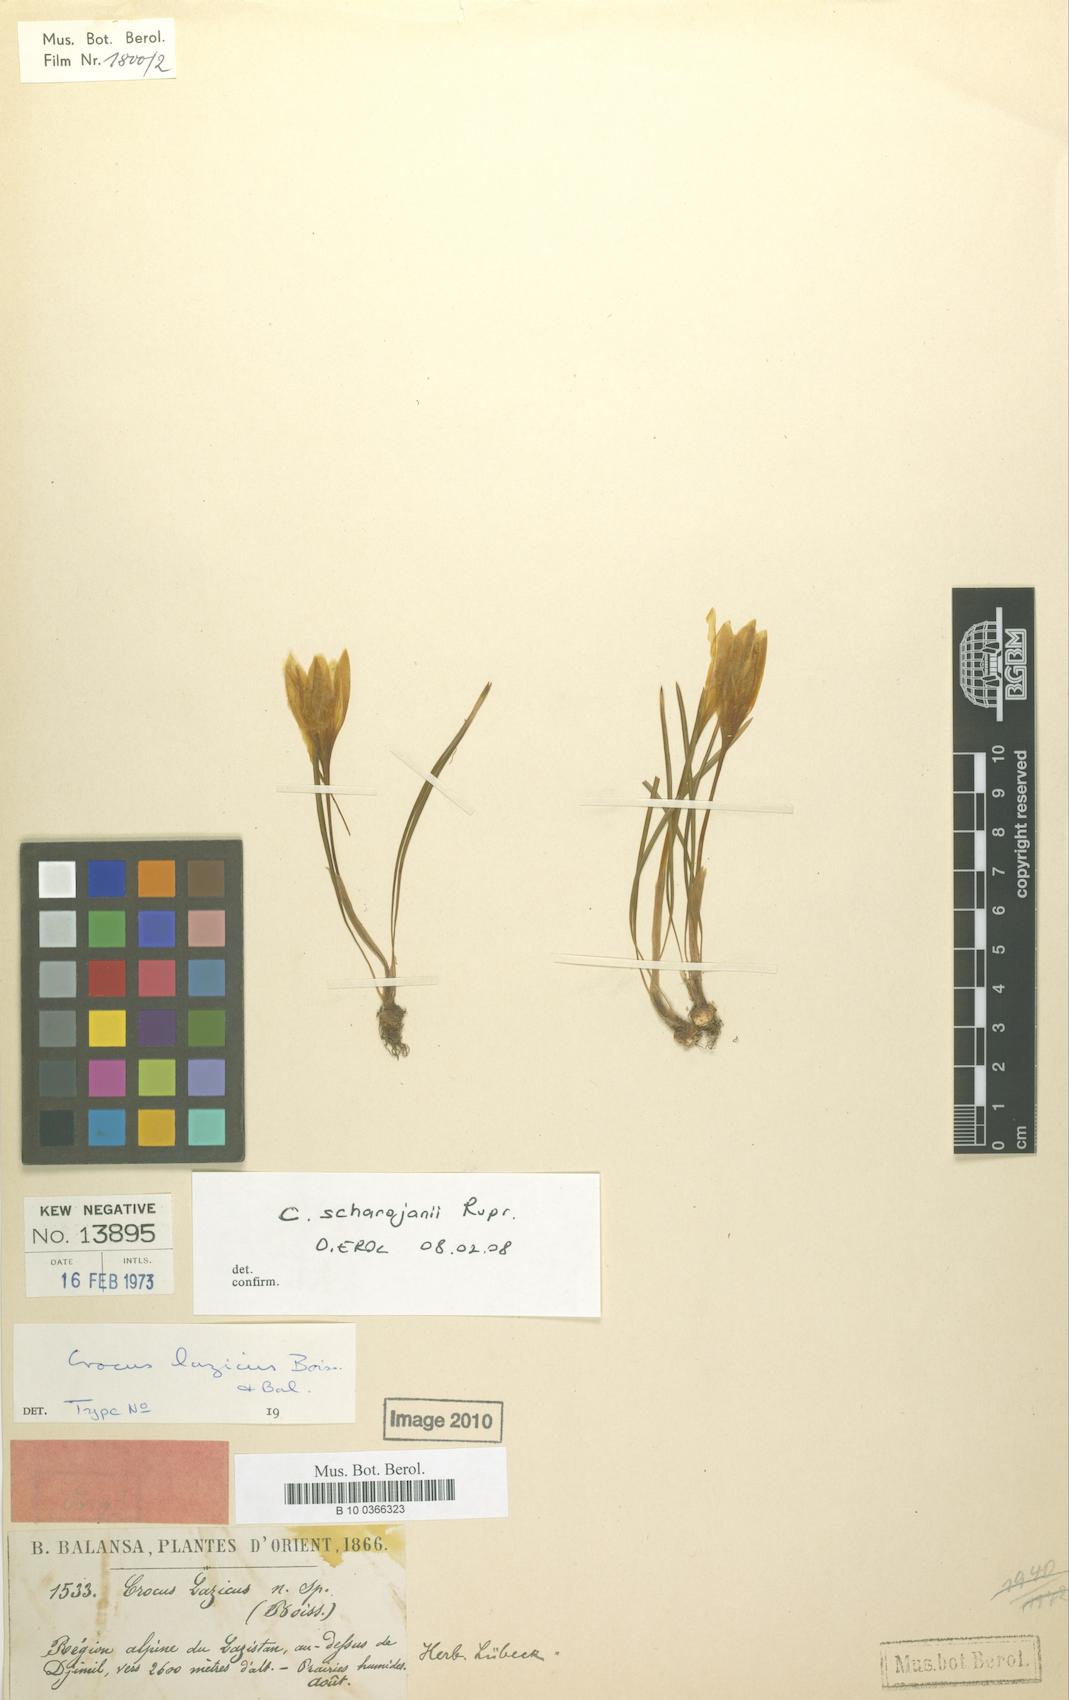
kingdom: Plantae
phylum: Tracheophyta
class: Liliopsida
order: Asparagales
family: Iridaceae
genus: Crocus
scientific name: Crocus scharojanii
